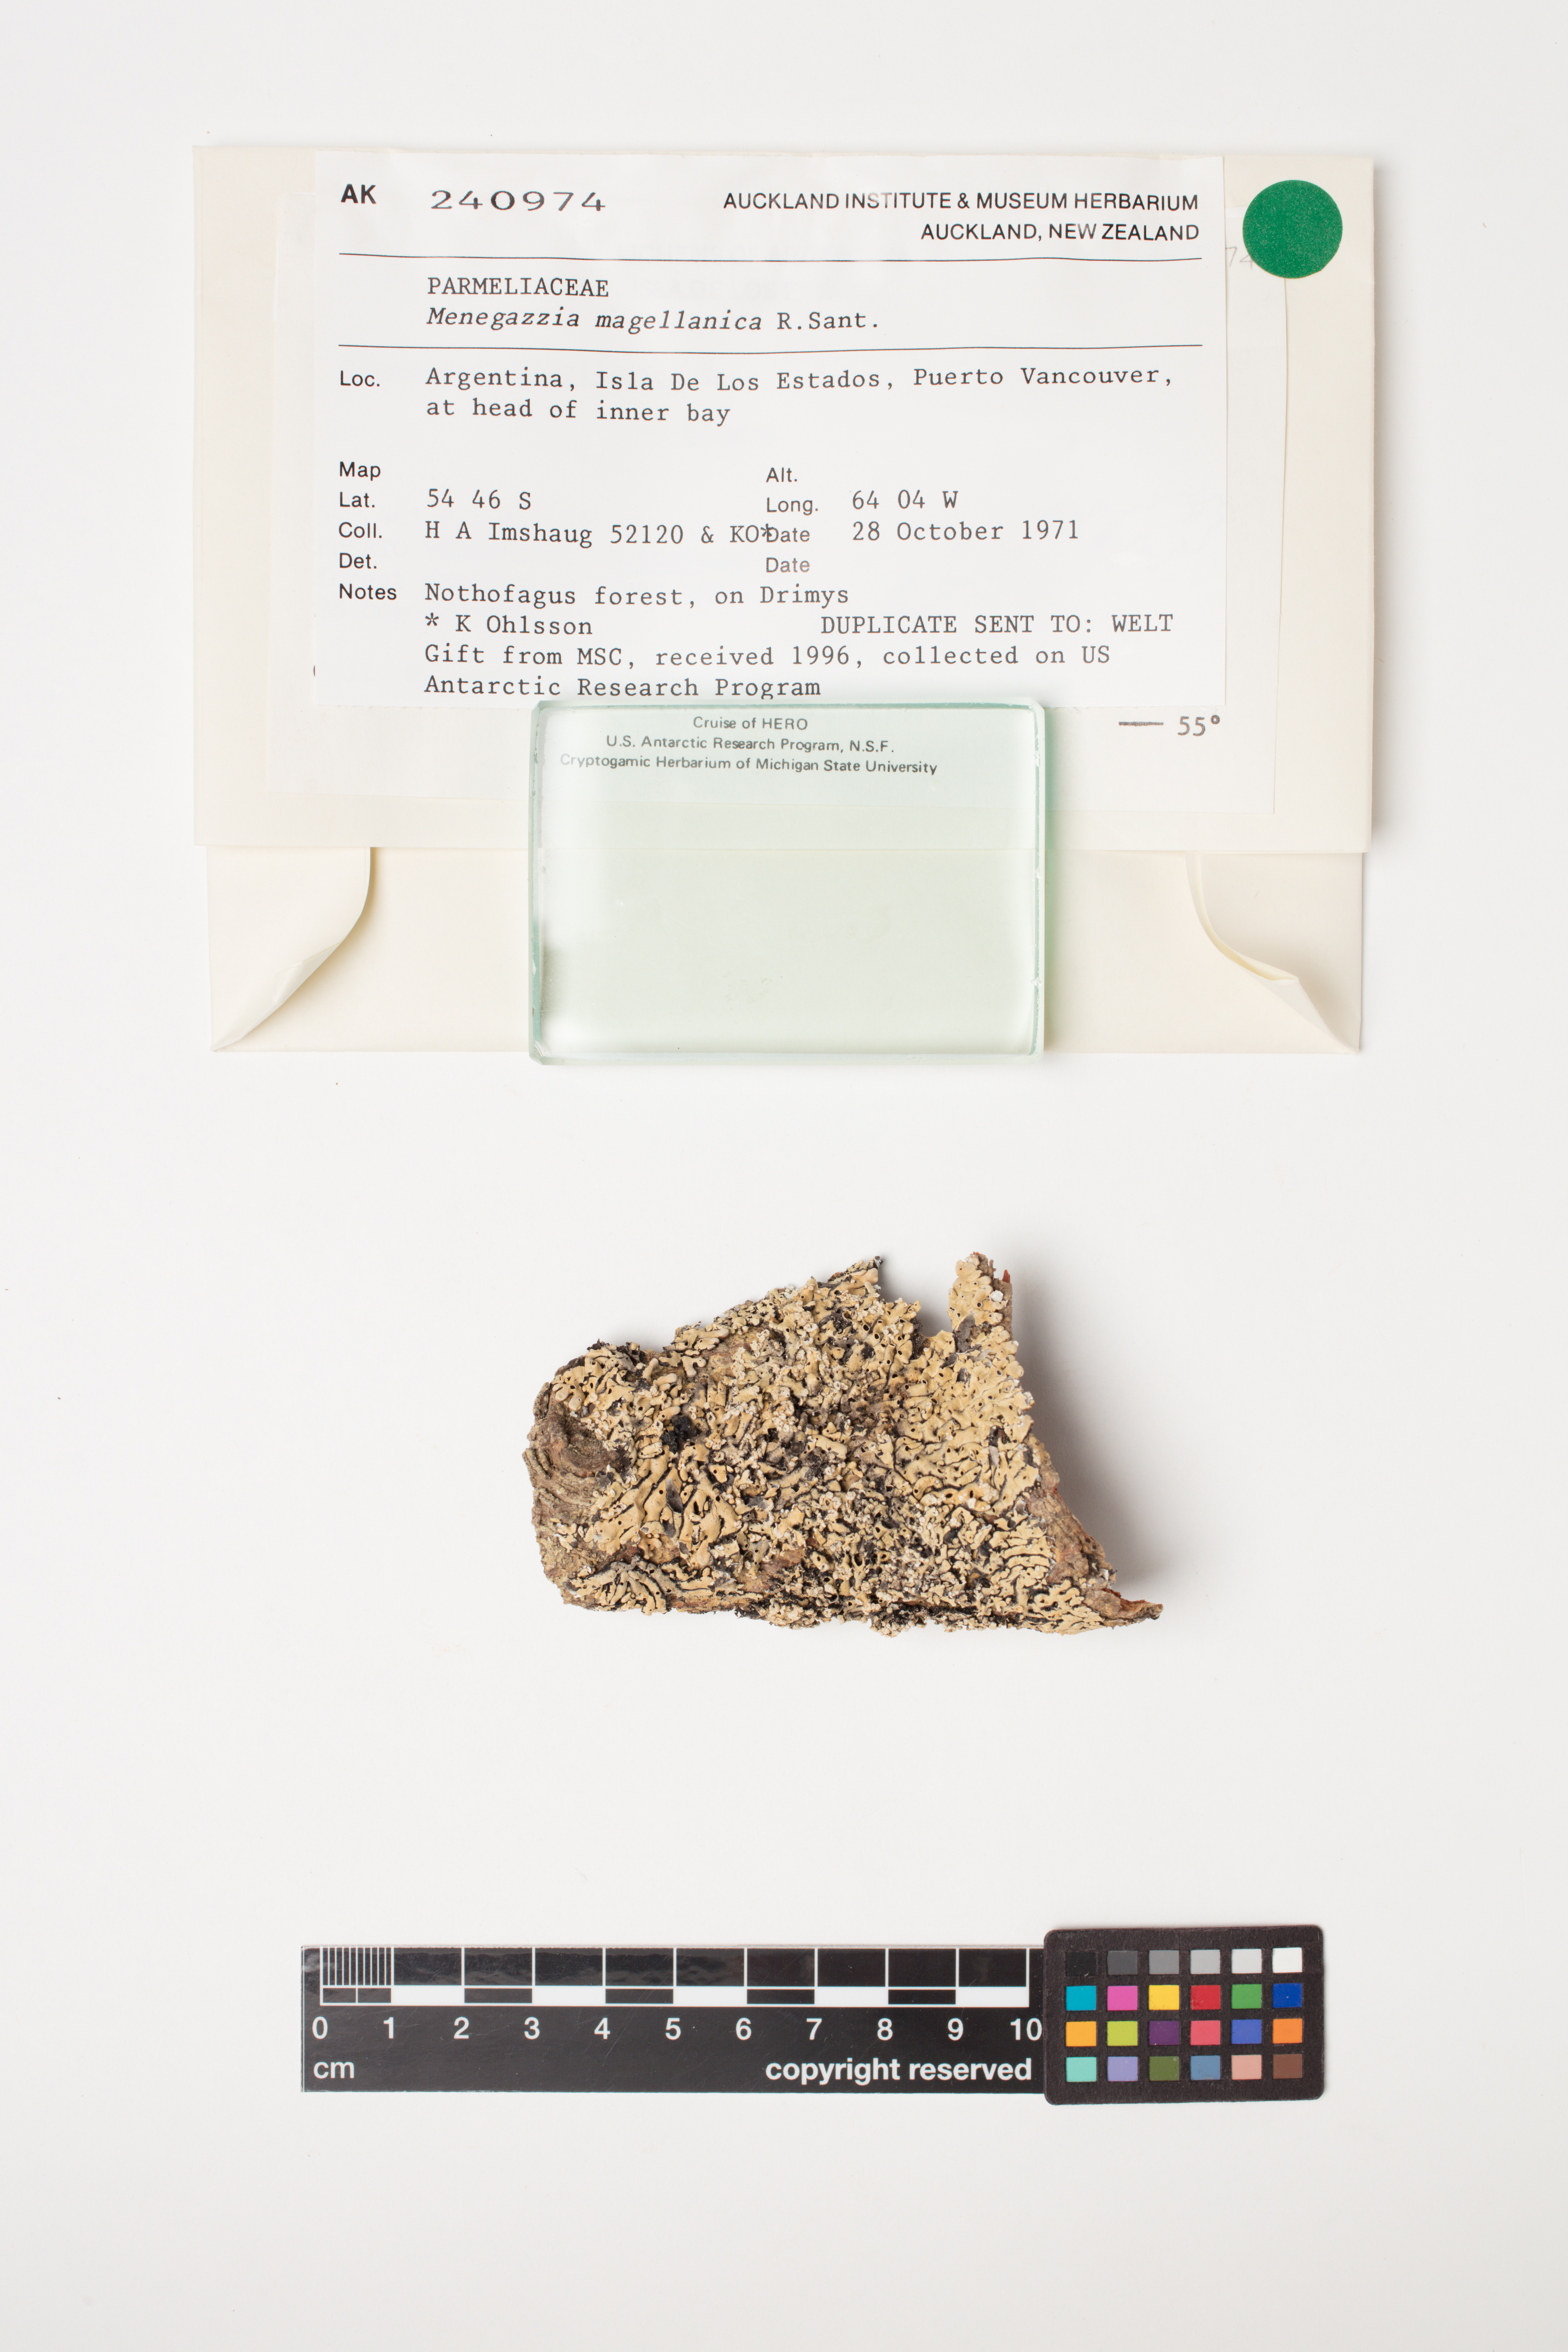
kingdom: Fungi
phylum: Ascomycota
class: Lecanoromycetes
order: Lecanorales
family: Parmeliaceae
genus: Menegazzia
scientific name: Menegazzia subpertusa
